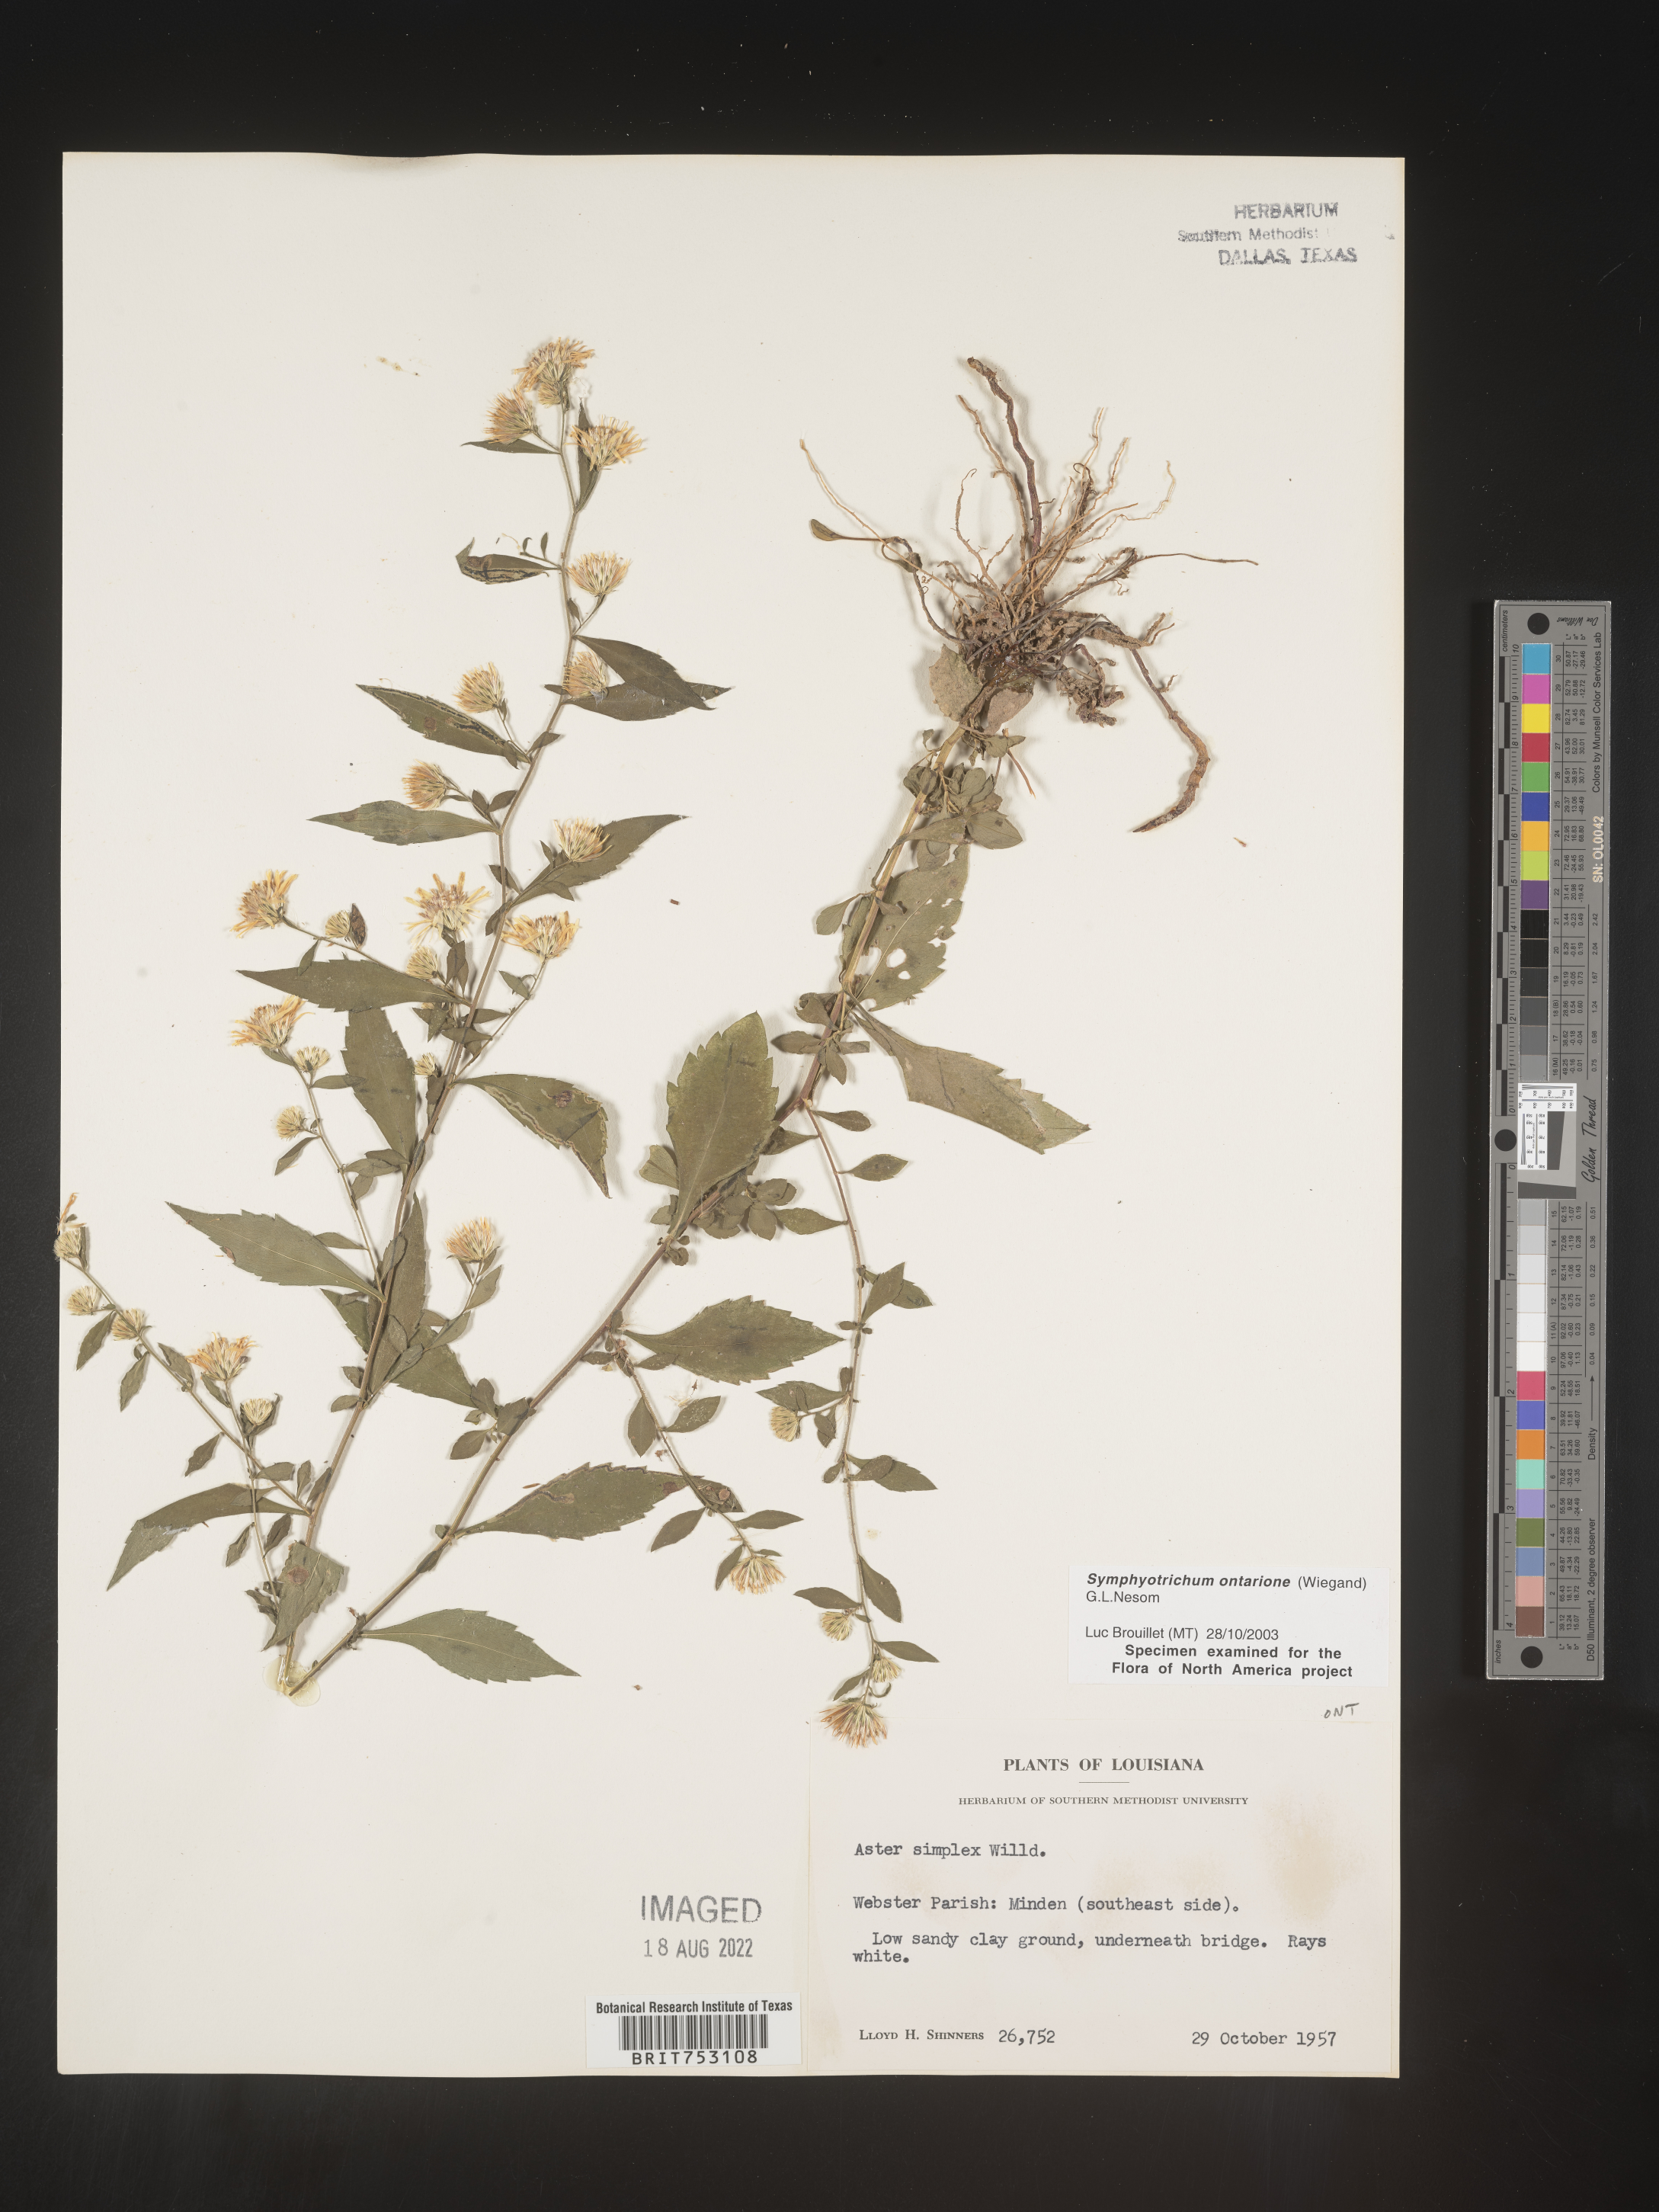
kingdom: Plantae
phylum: Tracheophyta
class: Magnoliopsida
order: Asterales
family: Asteraceae
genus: Symphyotrichum
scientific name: Symphyotrichum ontarionis
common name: Bottomland aster
